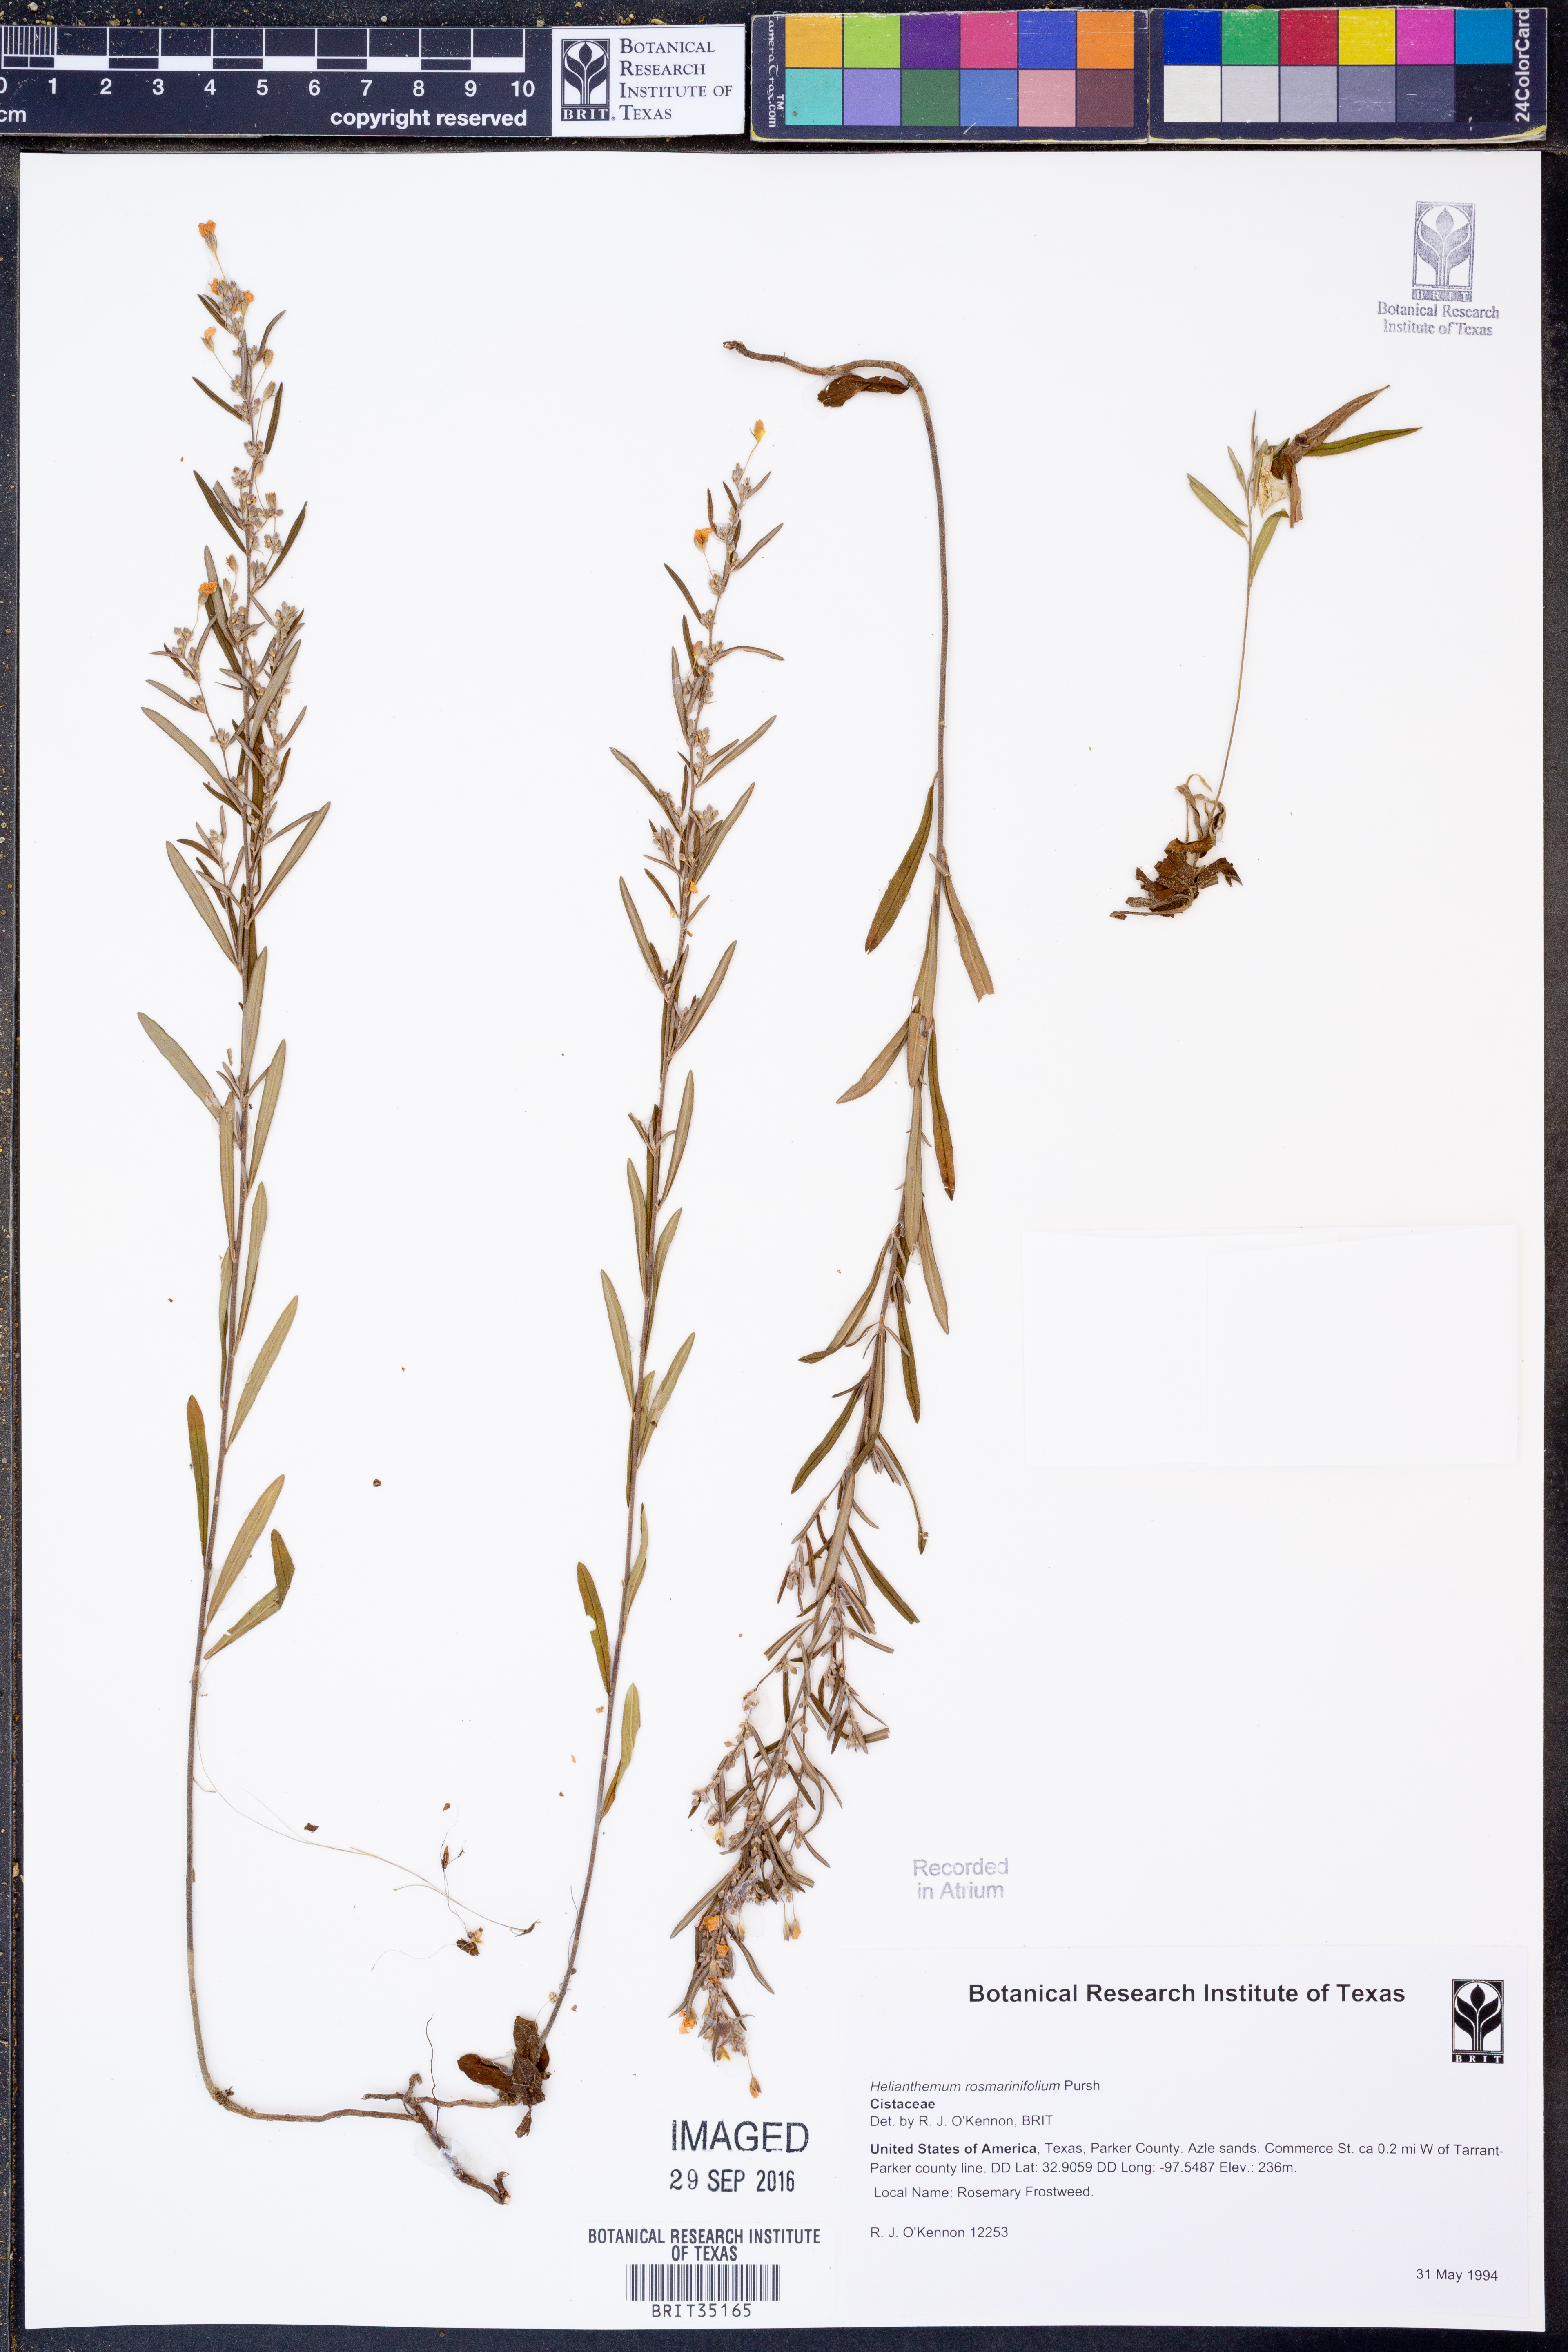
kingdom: Plantae
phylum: Tracheophyta
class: Magnoliopsida
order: Malvales
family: Cistaceae
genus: Crocanthemum
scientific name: Crocanthemum rosmarinifolium
